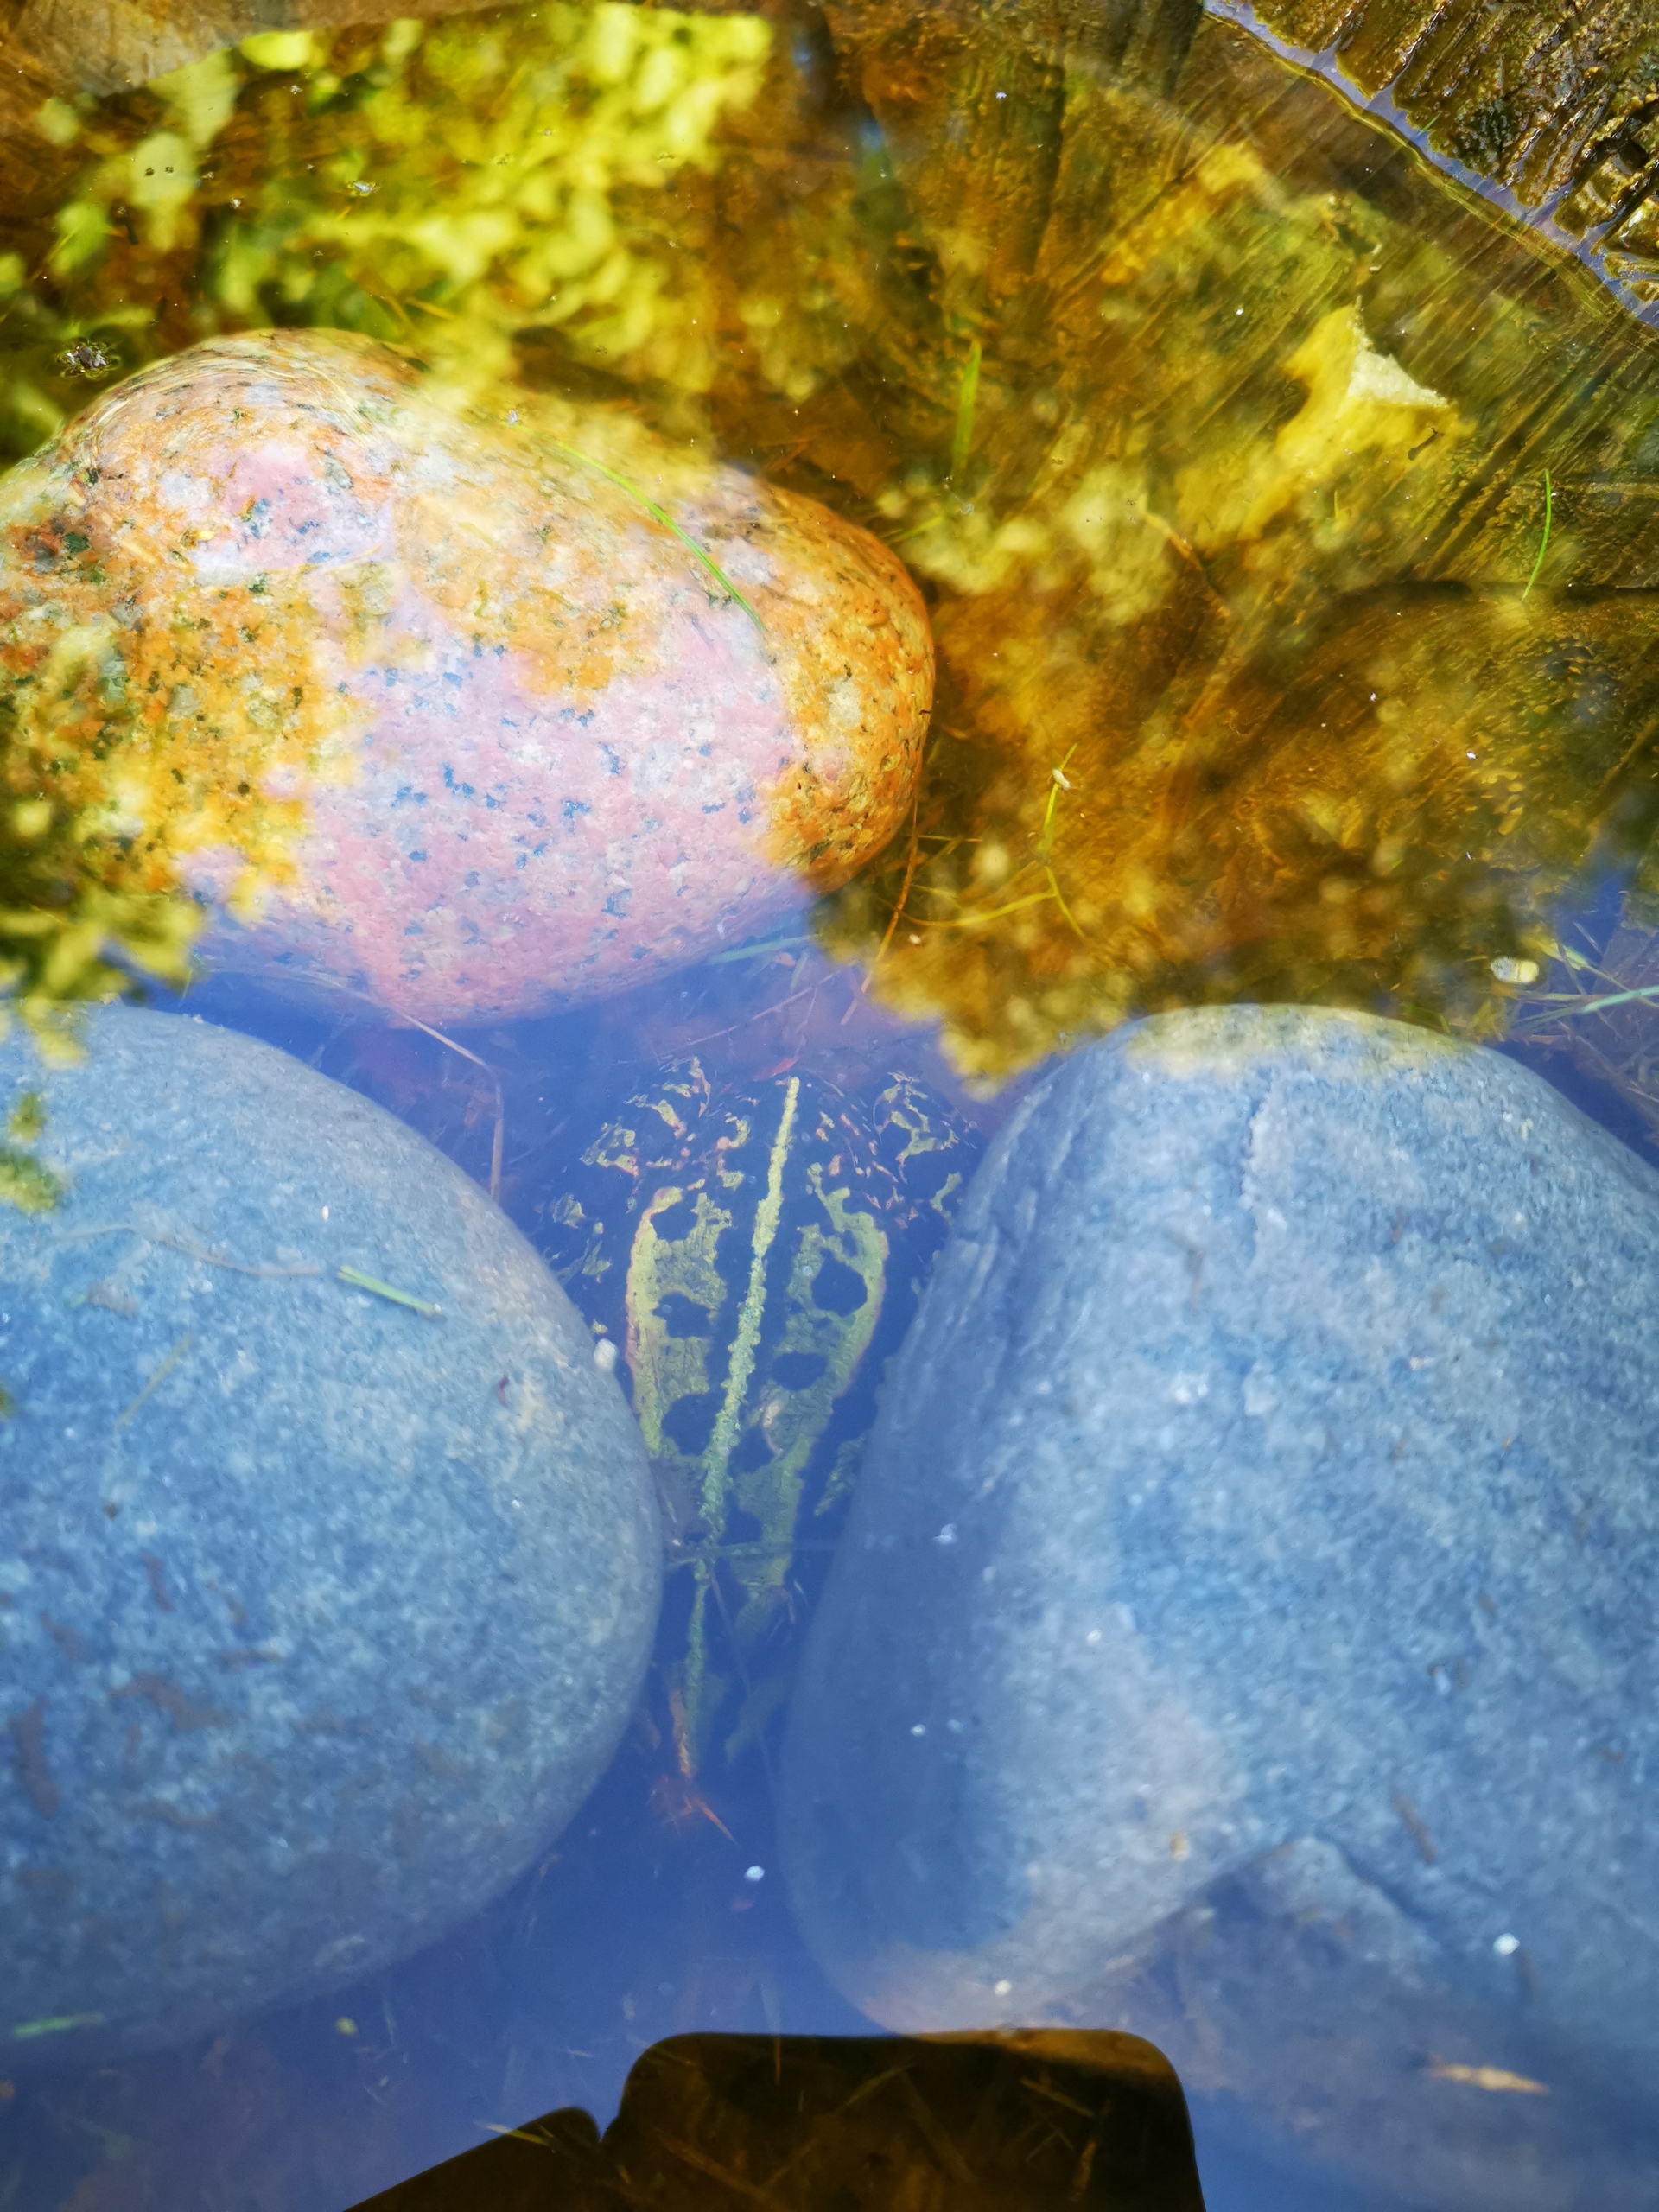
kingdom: Animalia
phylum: Chordata
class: Amphibia
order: Anura
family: Ranidae
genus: Pelophylax
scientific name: Pelophylax lessonae
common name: Grøn frø
